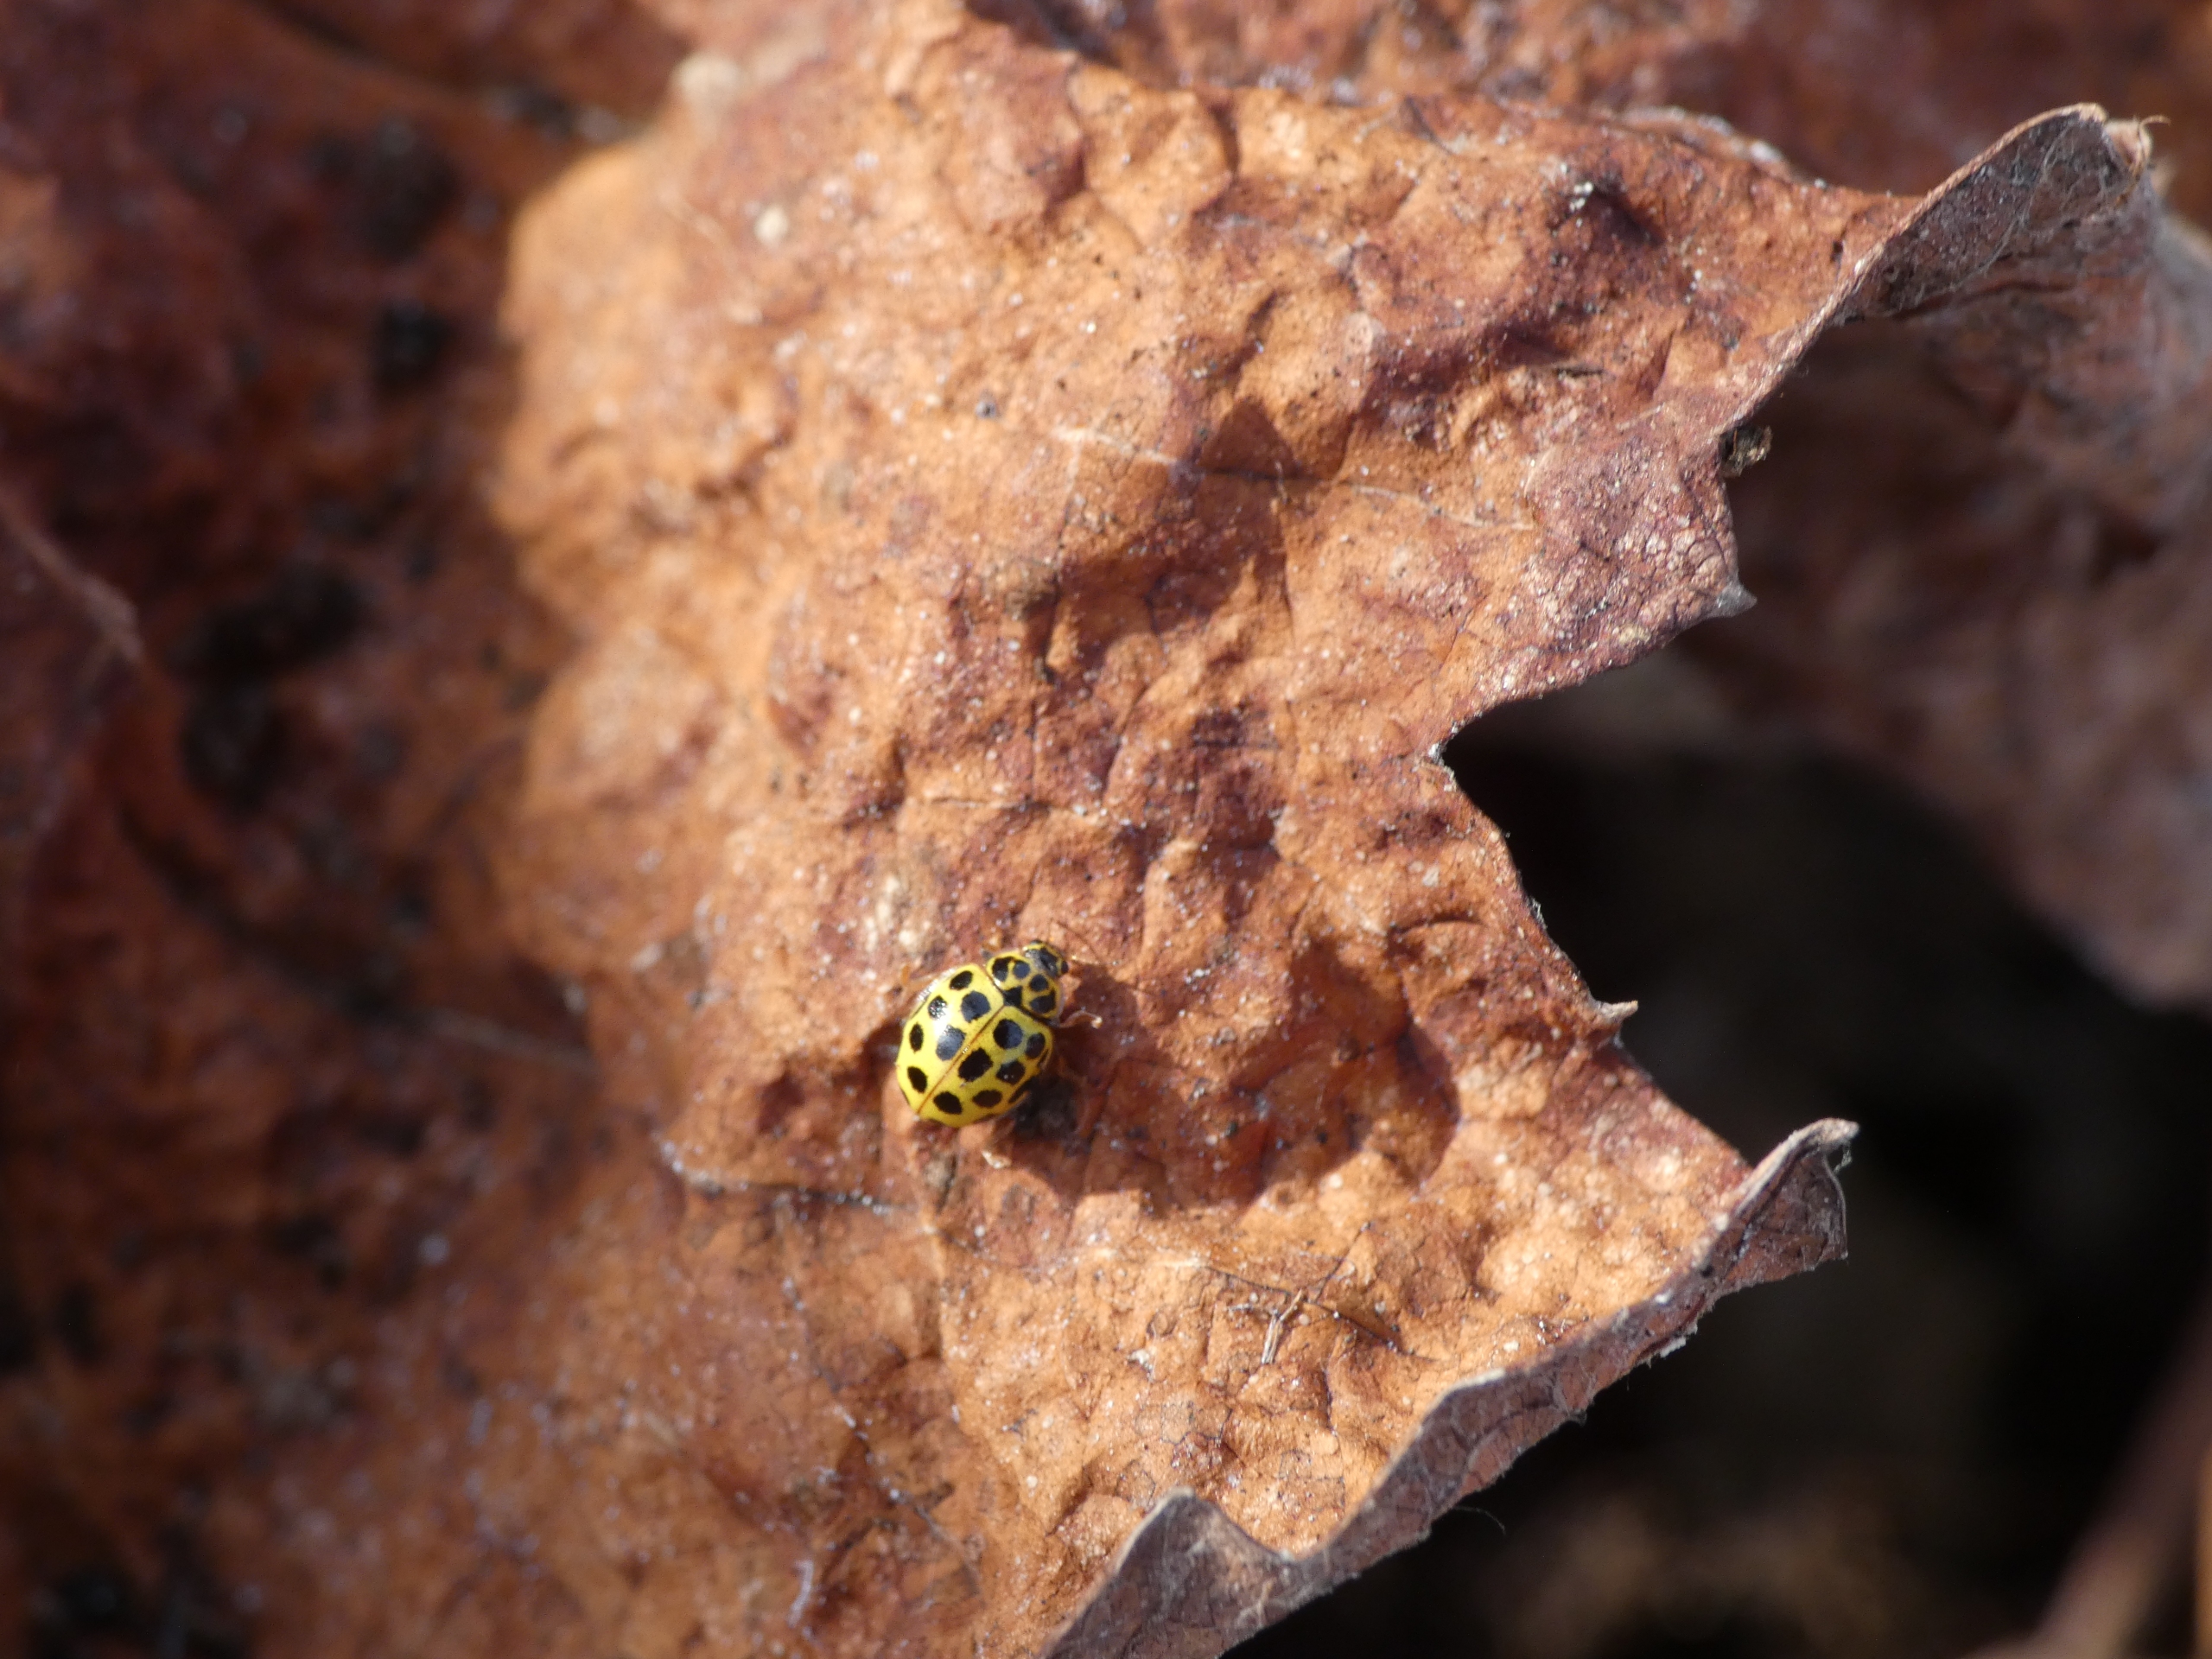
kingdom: Animalia
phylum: Arthropoda
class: Insecta
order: Coleoptera
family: Coccinellidae
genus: Psyllobora
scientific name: Psyllobora vigintiduopunctata
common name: Toogtyveplettet mariehøne
